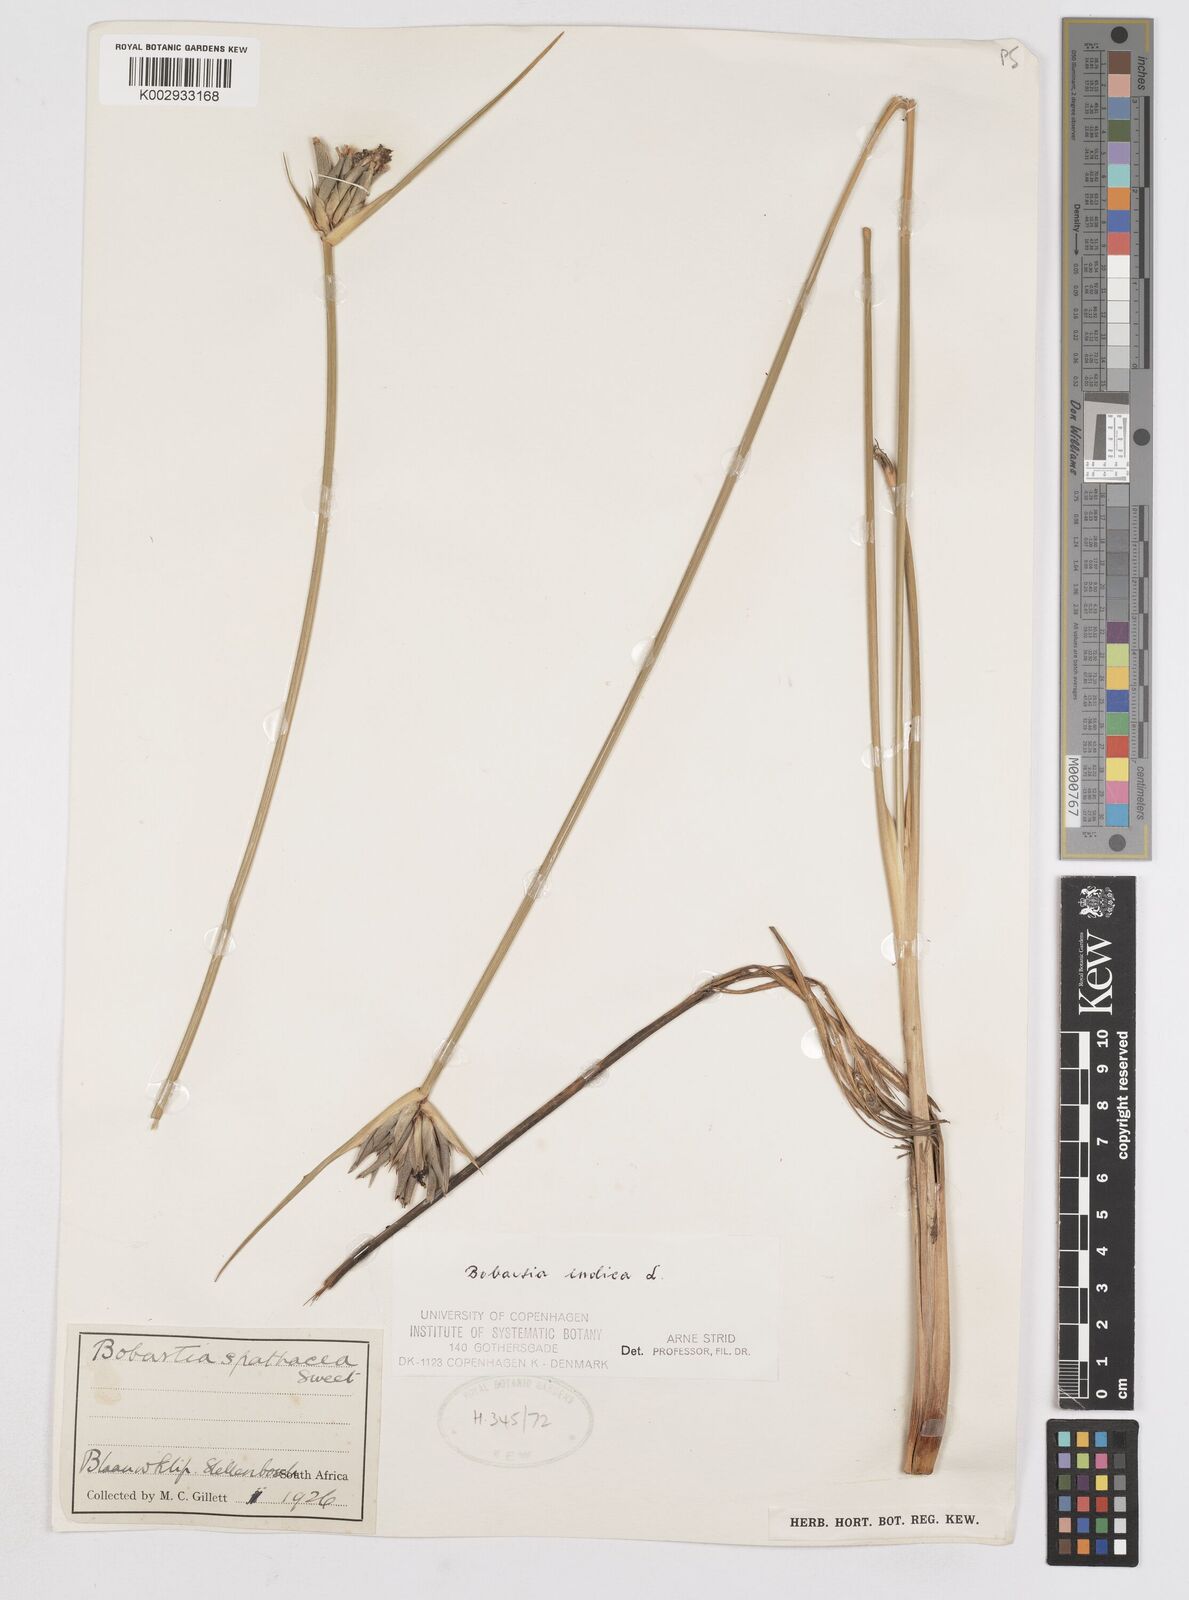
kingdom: Plantae
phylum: Tracheophyta
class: Liliopsida
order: Asparagales
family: Iridaceae
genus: Bobartia
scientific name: Bobartia indica
